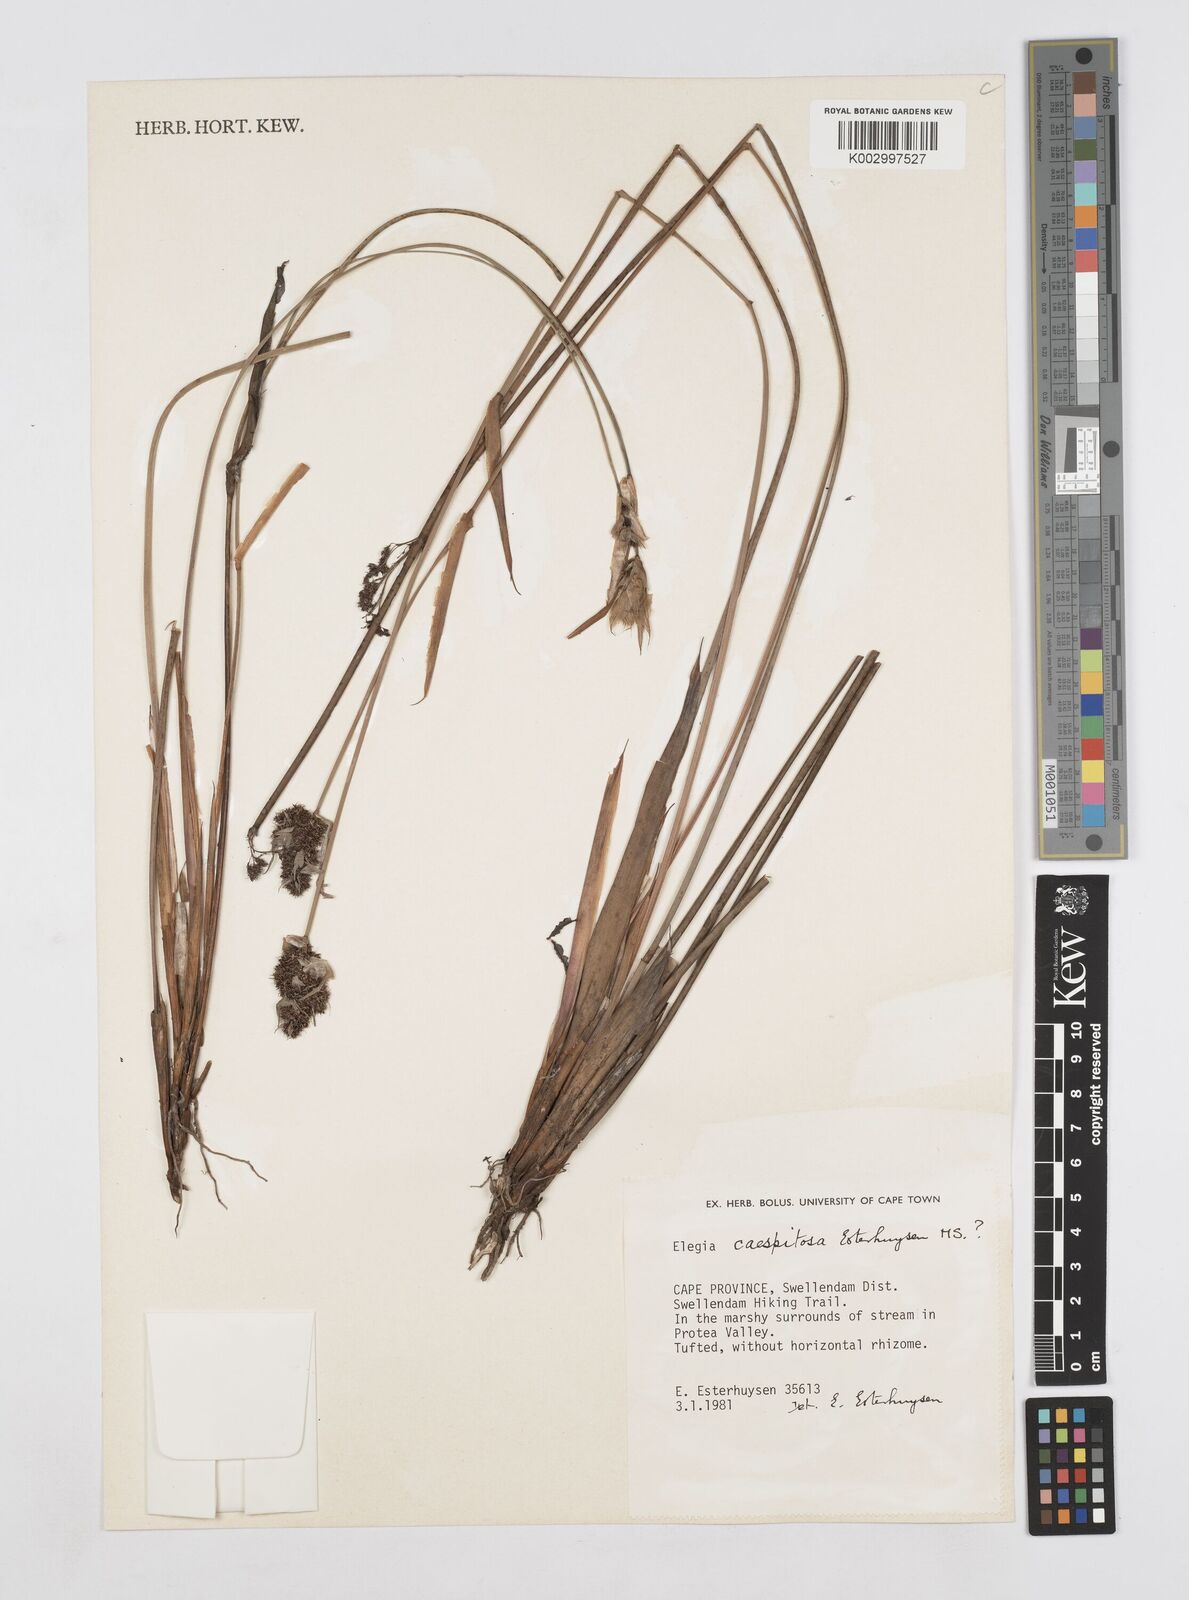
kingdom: Plantae
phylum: Tracheophyta
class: Liliopsida
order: Poales
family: Restionaceae
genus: Elegia
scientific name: Elegia caespitosa
